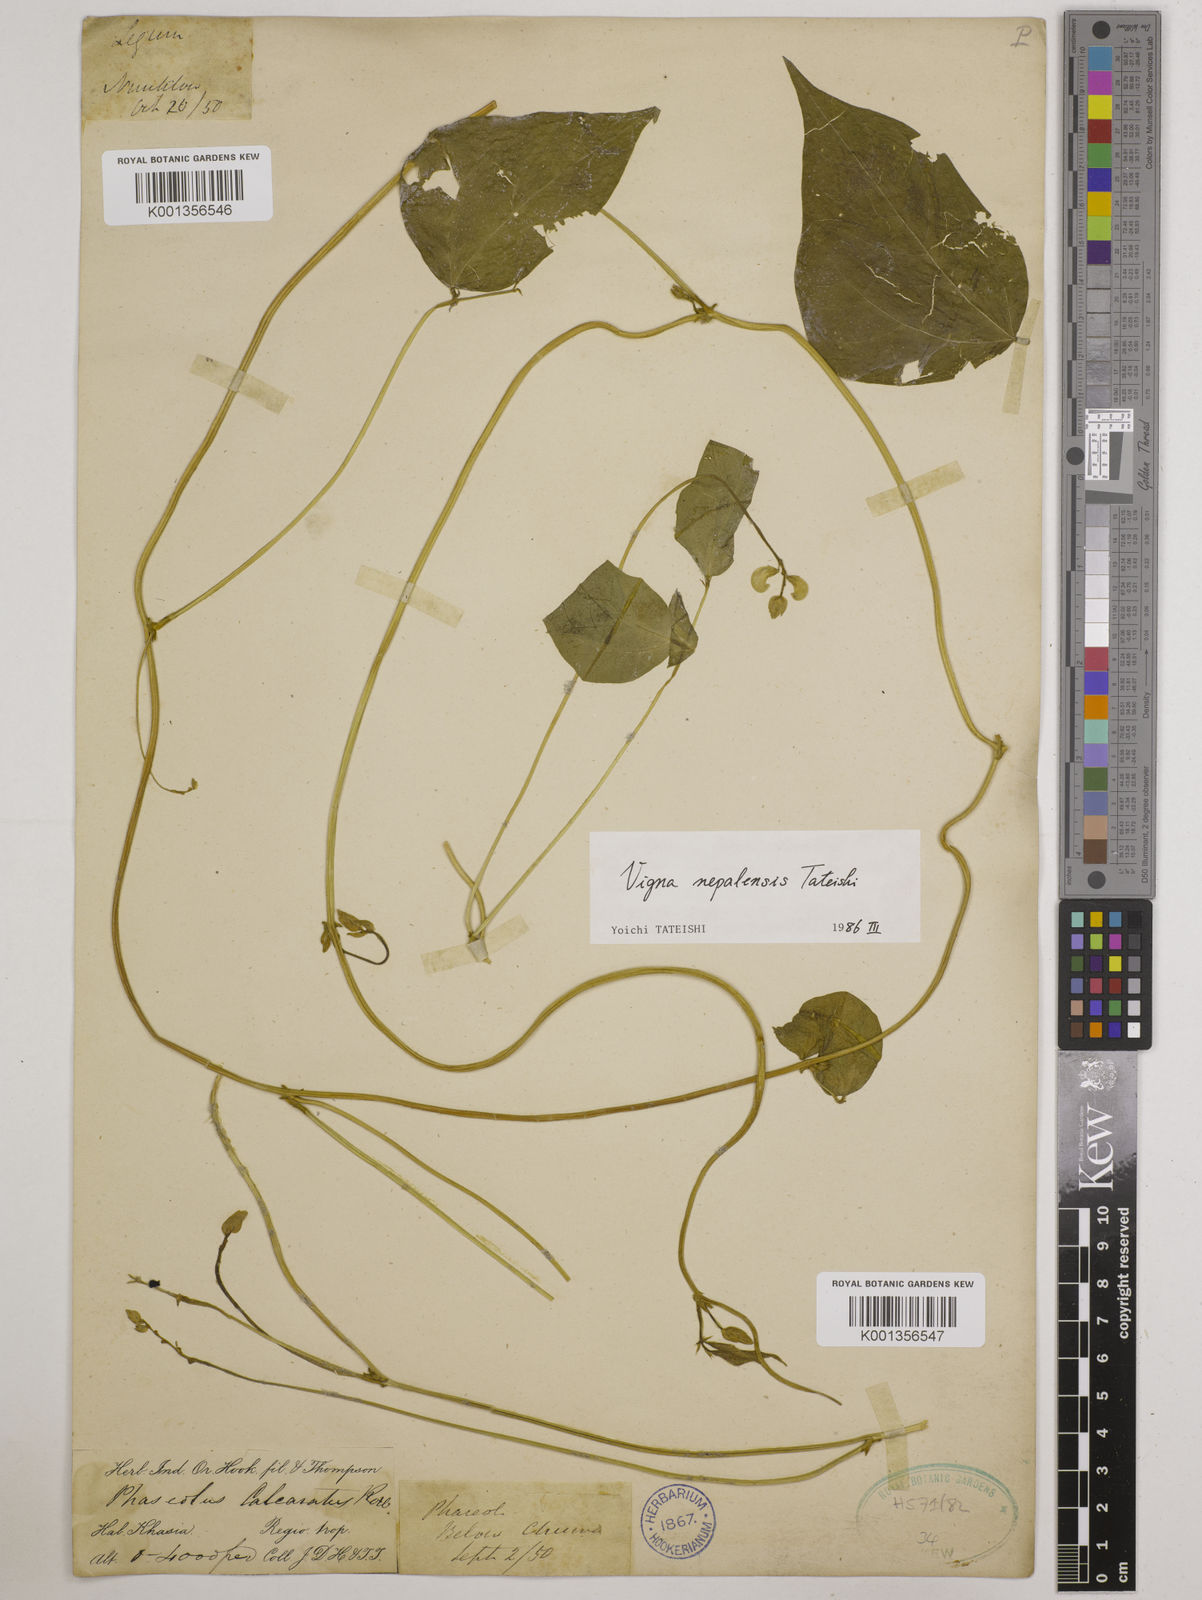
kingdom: Plantae
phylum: Tracheophyta
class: Magnoliopsida
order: Fabales
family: Fabaceae
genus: Vigna
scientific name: Vigna
